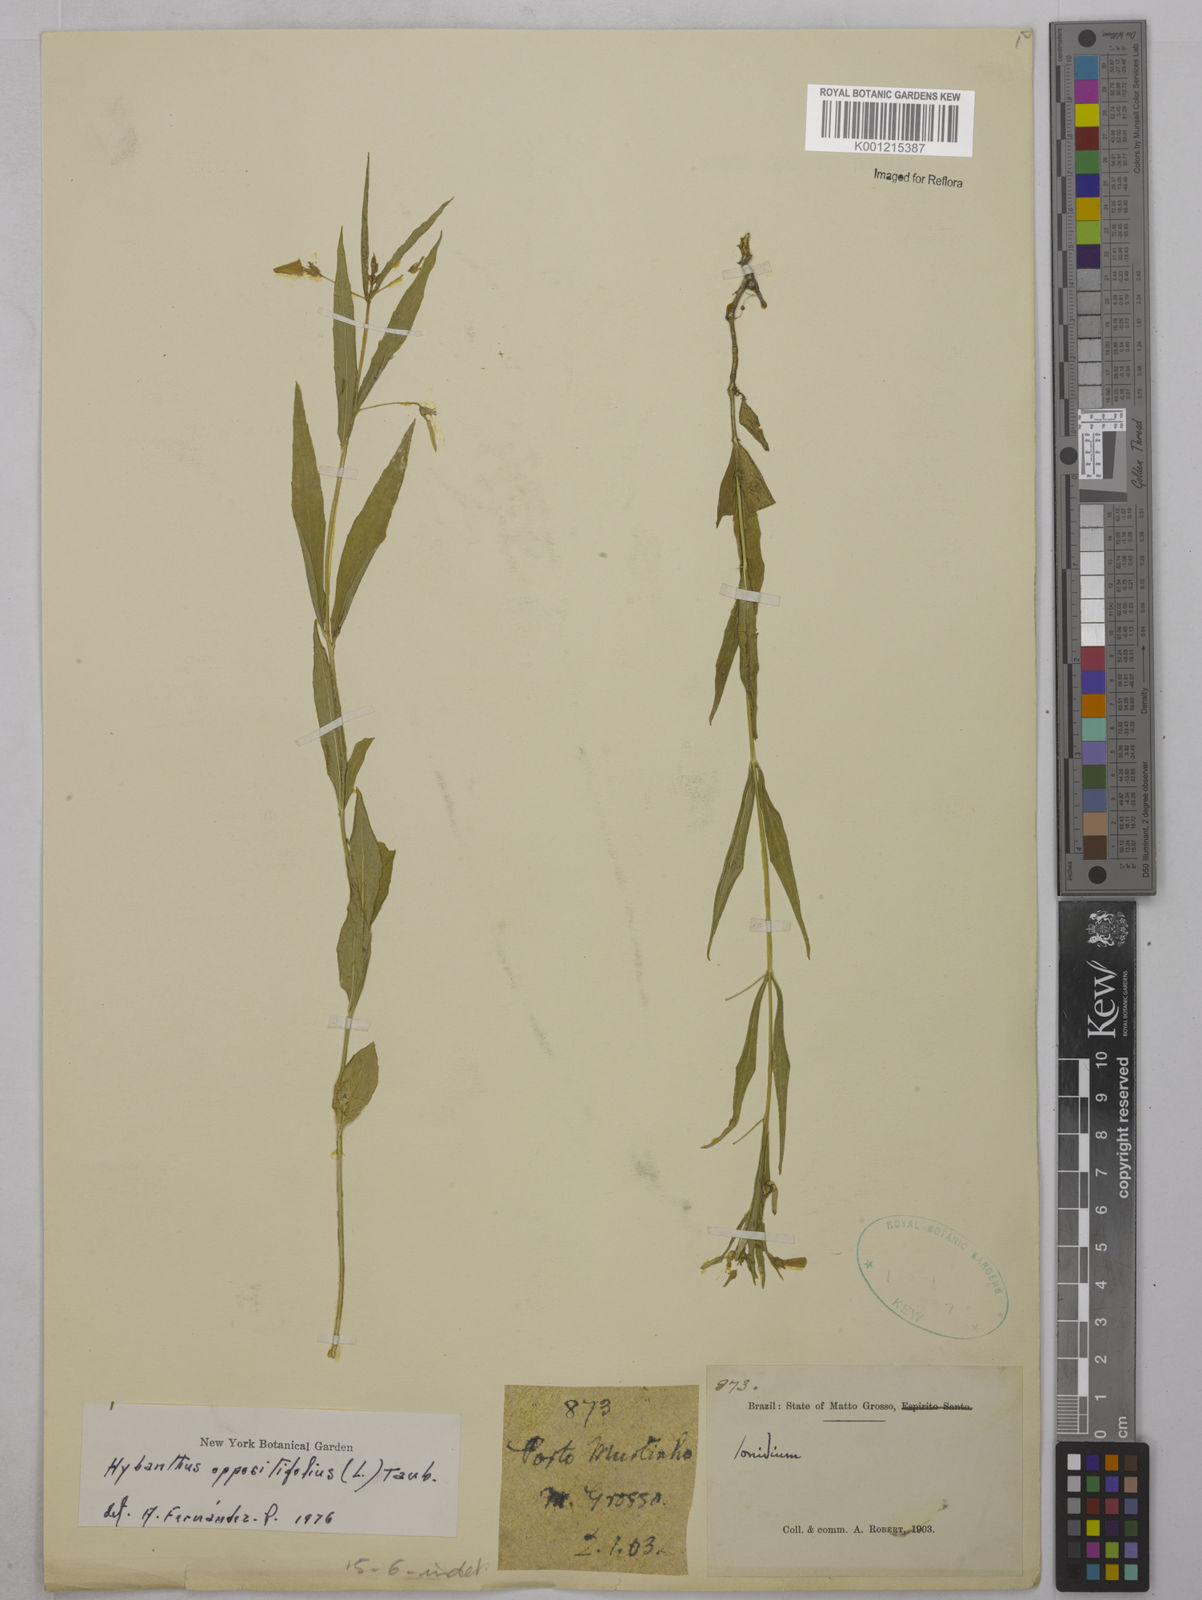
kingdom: Plantae
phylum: Tracheophyta
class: Magnoliopsida
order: Malpighiales
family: Violaceae
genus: Pombalia
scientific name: Pombalia oppositifolia
